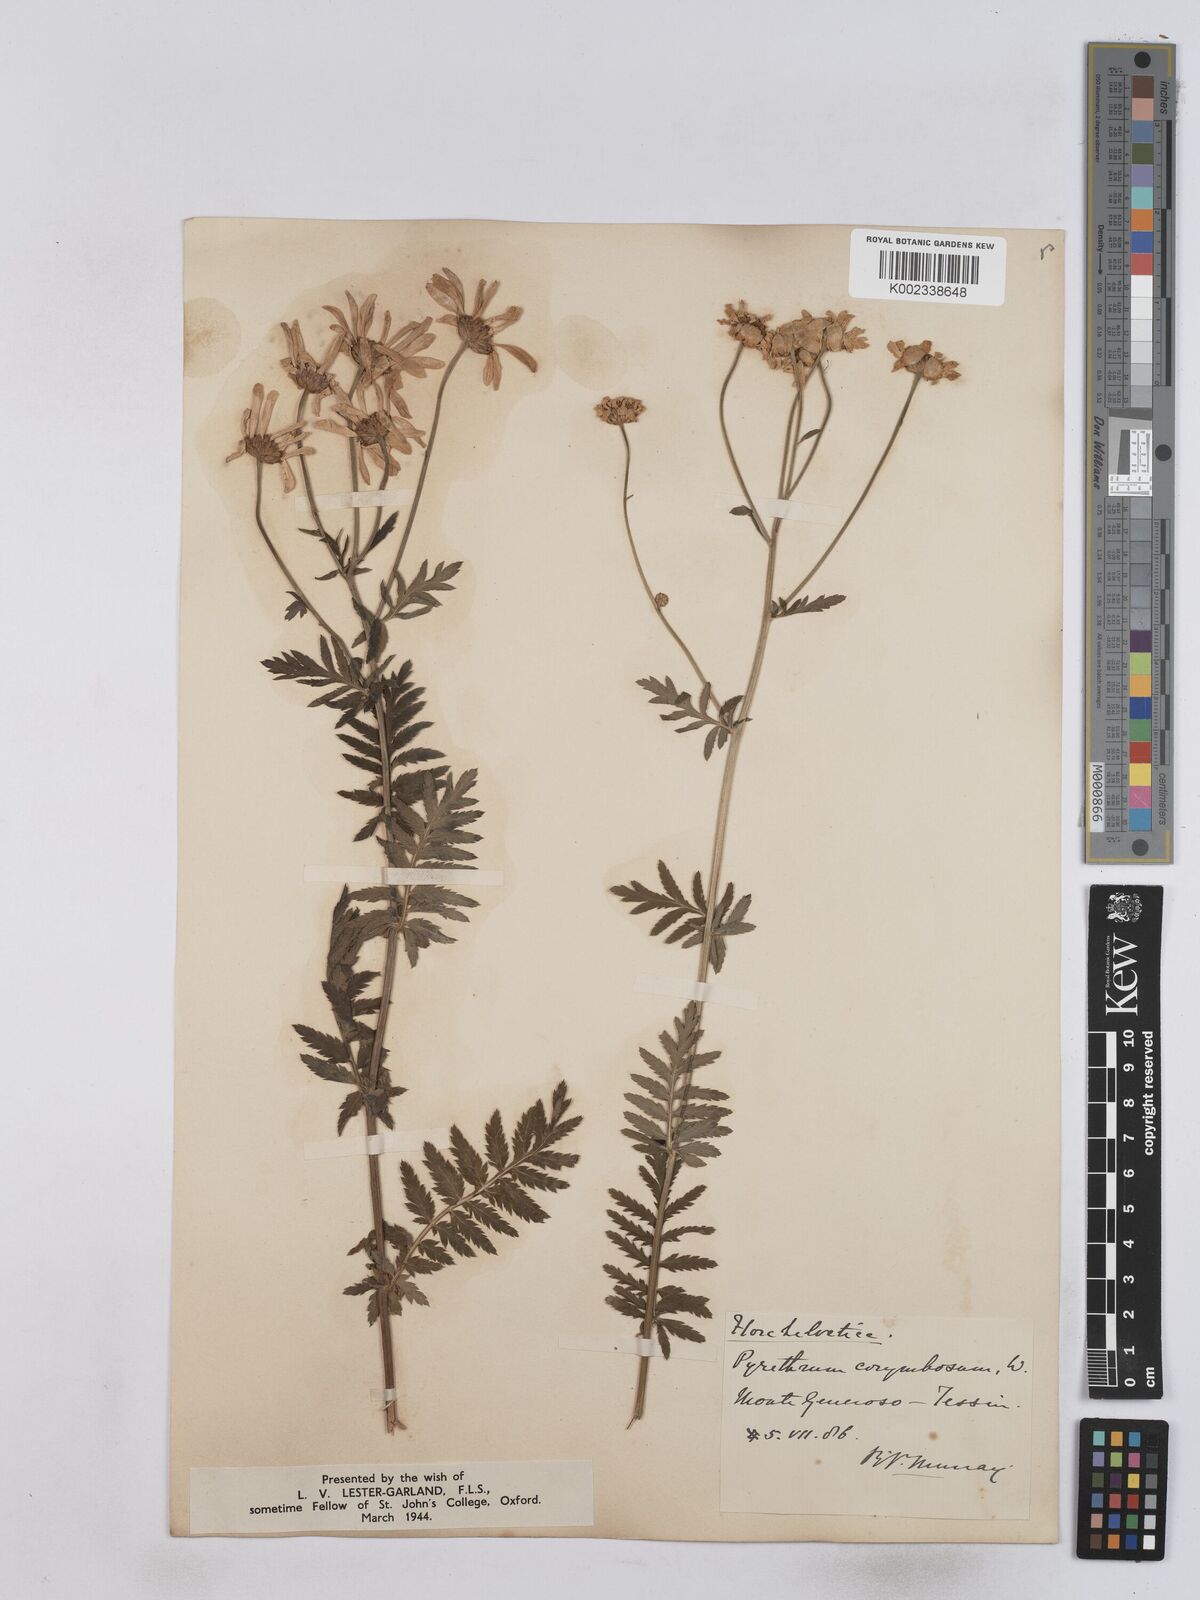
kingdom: Plantae
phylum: Tracheophyta
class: Magnoliopsida
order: Asterales
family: Asteraceae
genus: Tanacetum
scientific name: Tanacetum corymbosum
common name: Scentless feverfew
